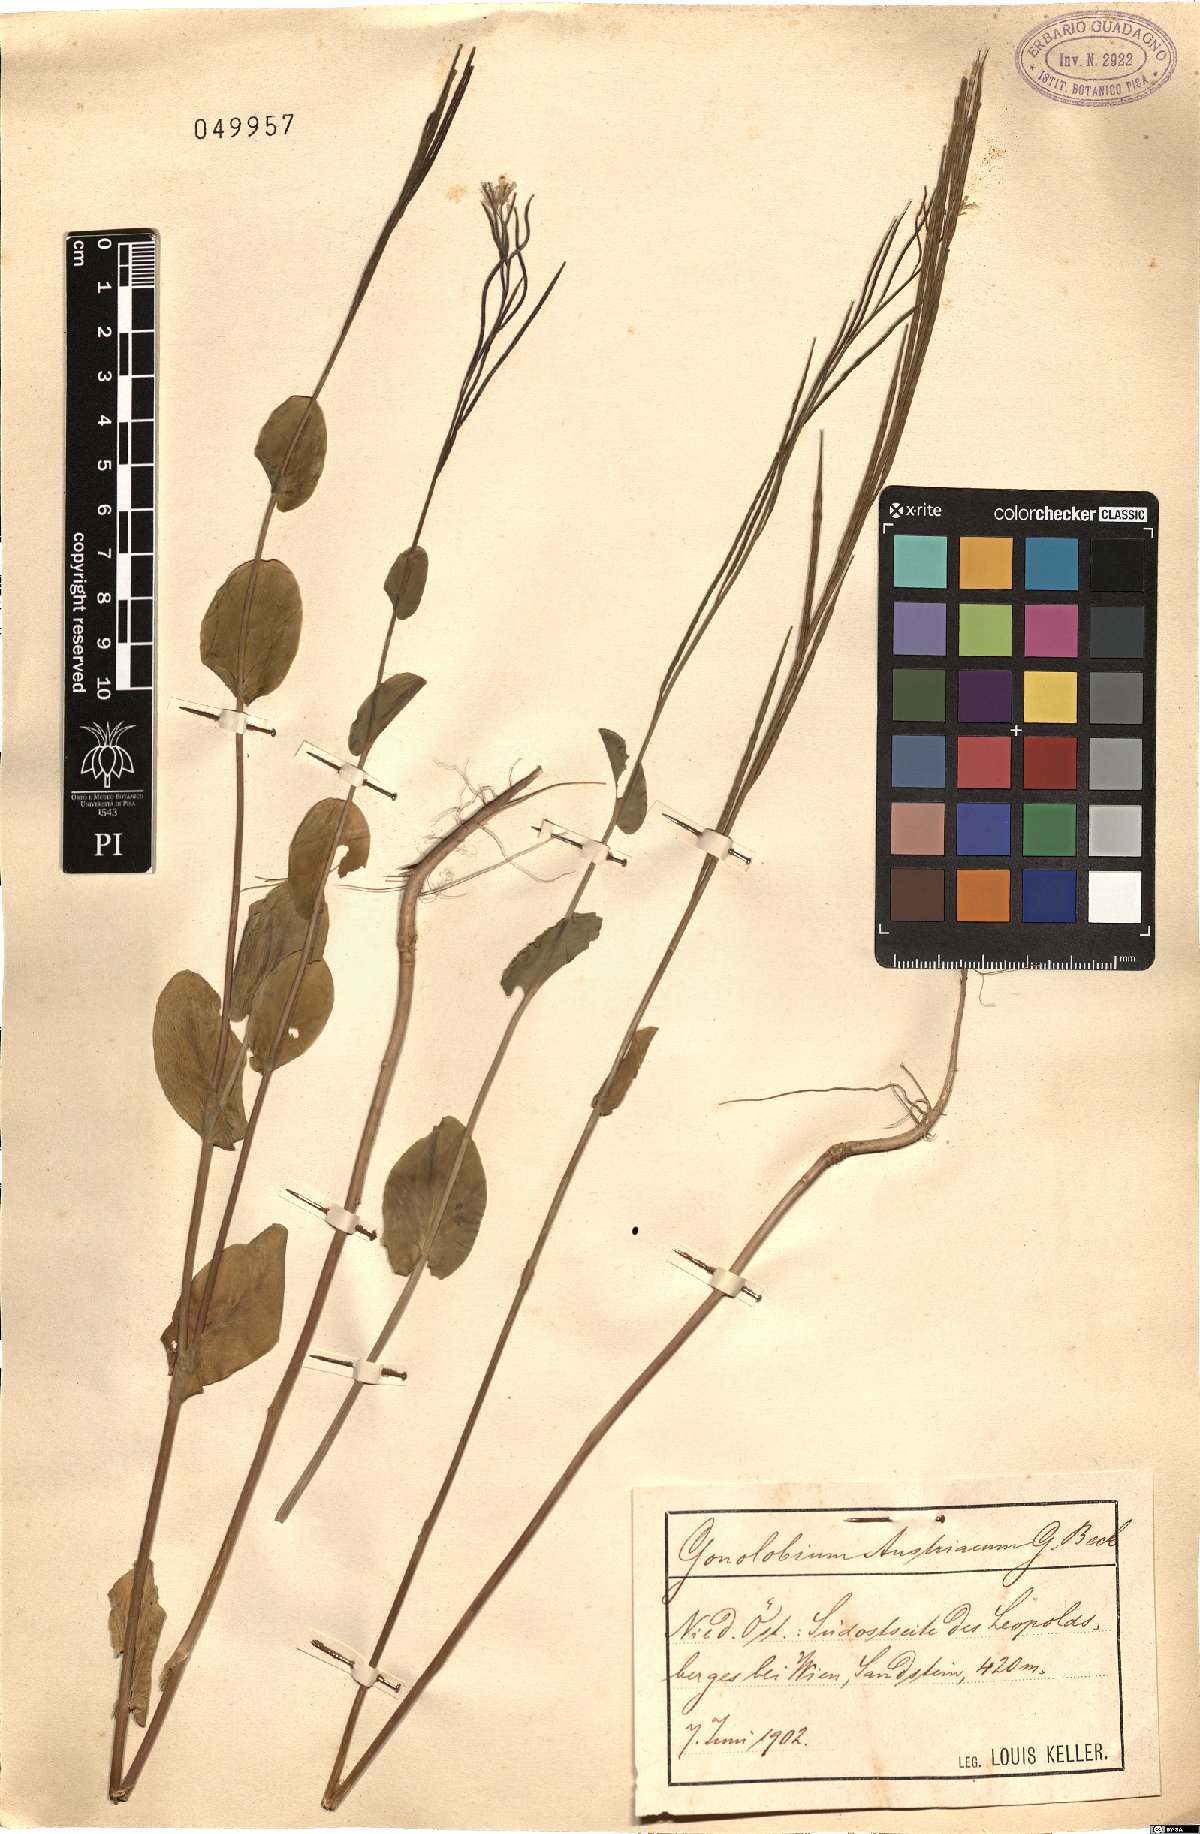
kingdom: Plantae
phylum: Tracheophyta
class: Magnoliopsida
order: Brassicales
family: Brassicaceae
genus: Conringia
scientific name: Conringia austriaca
